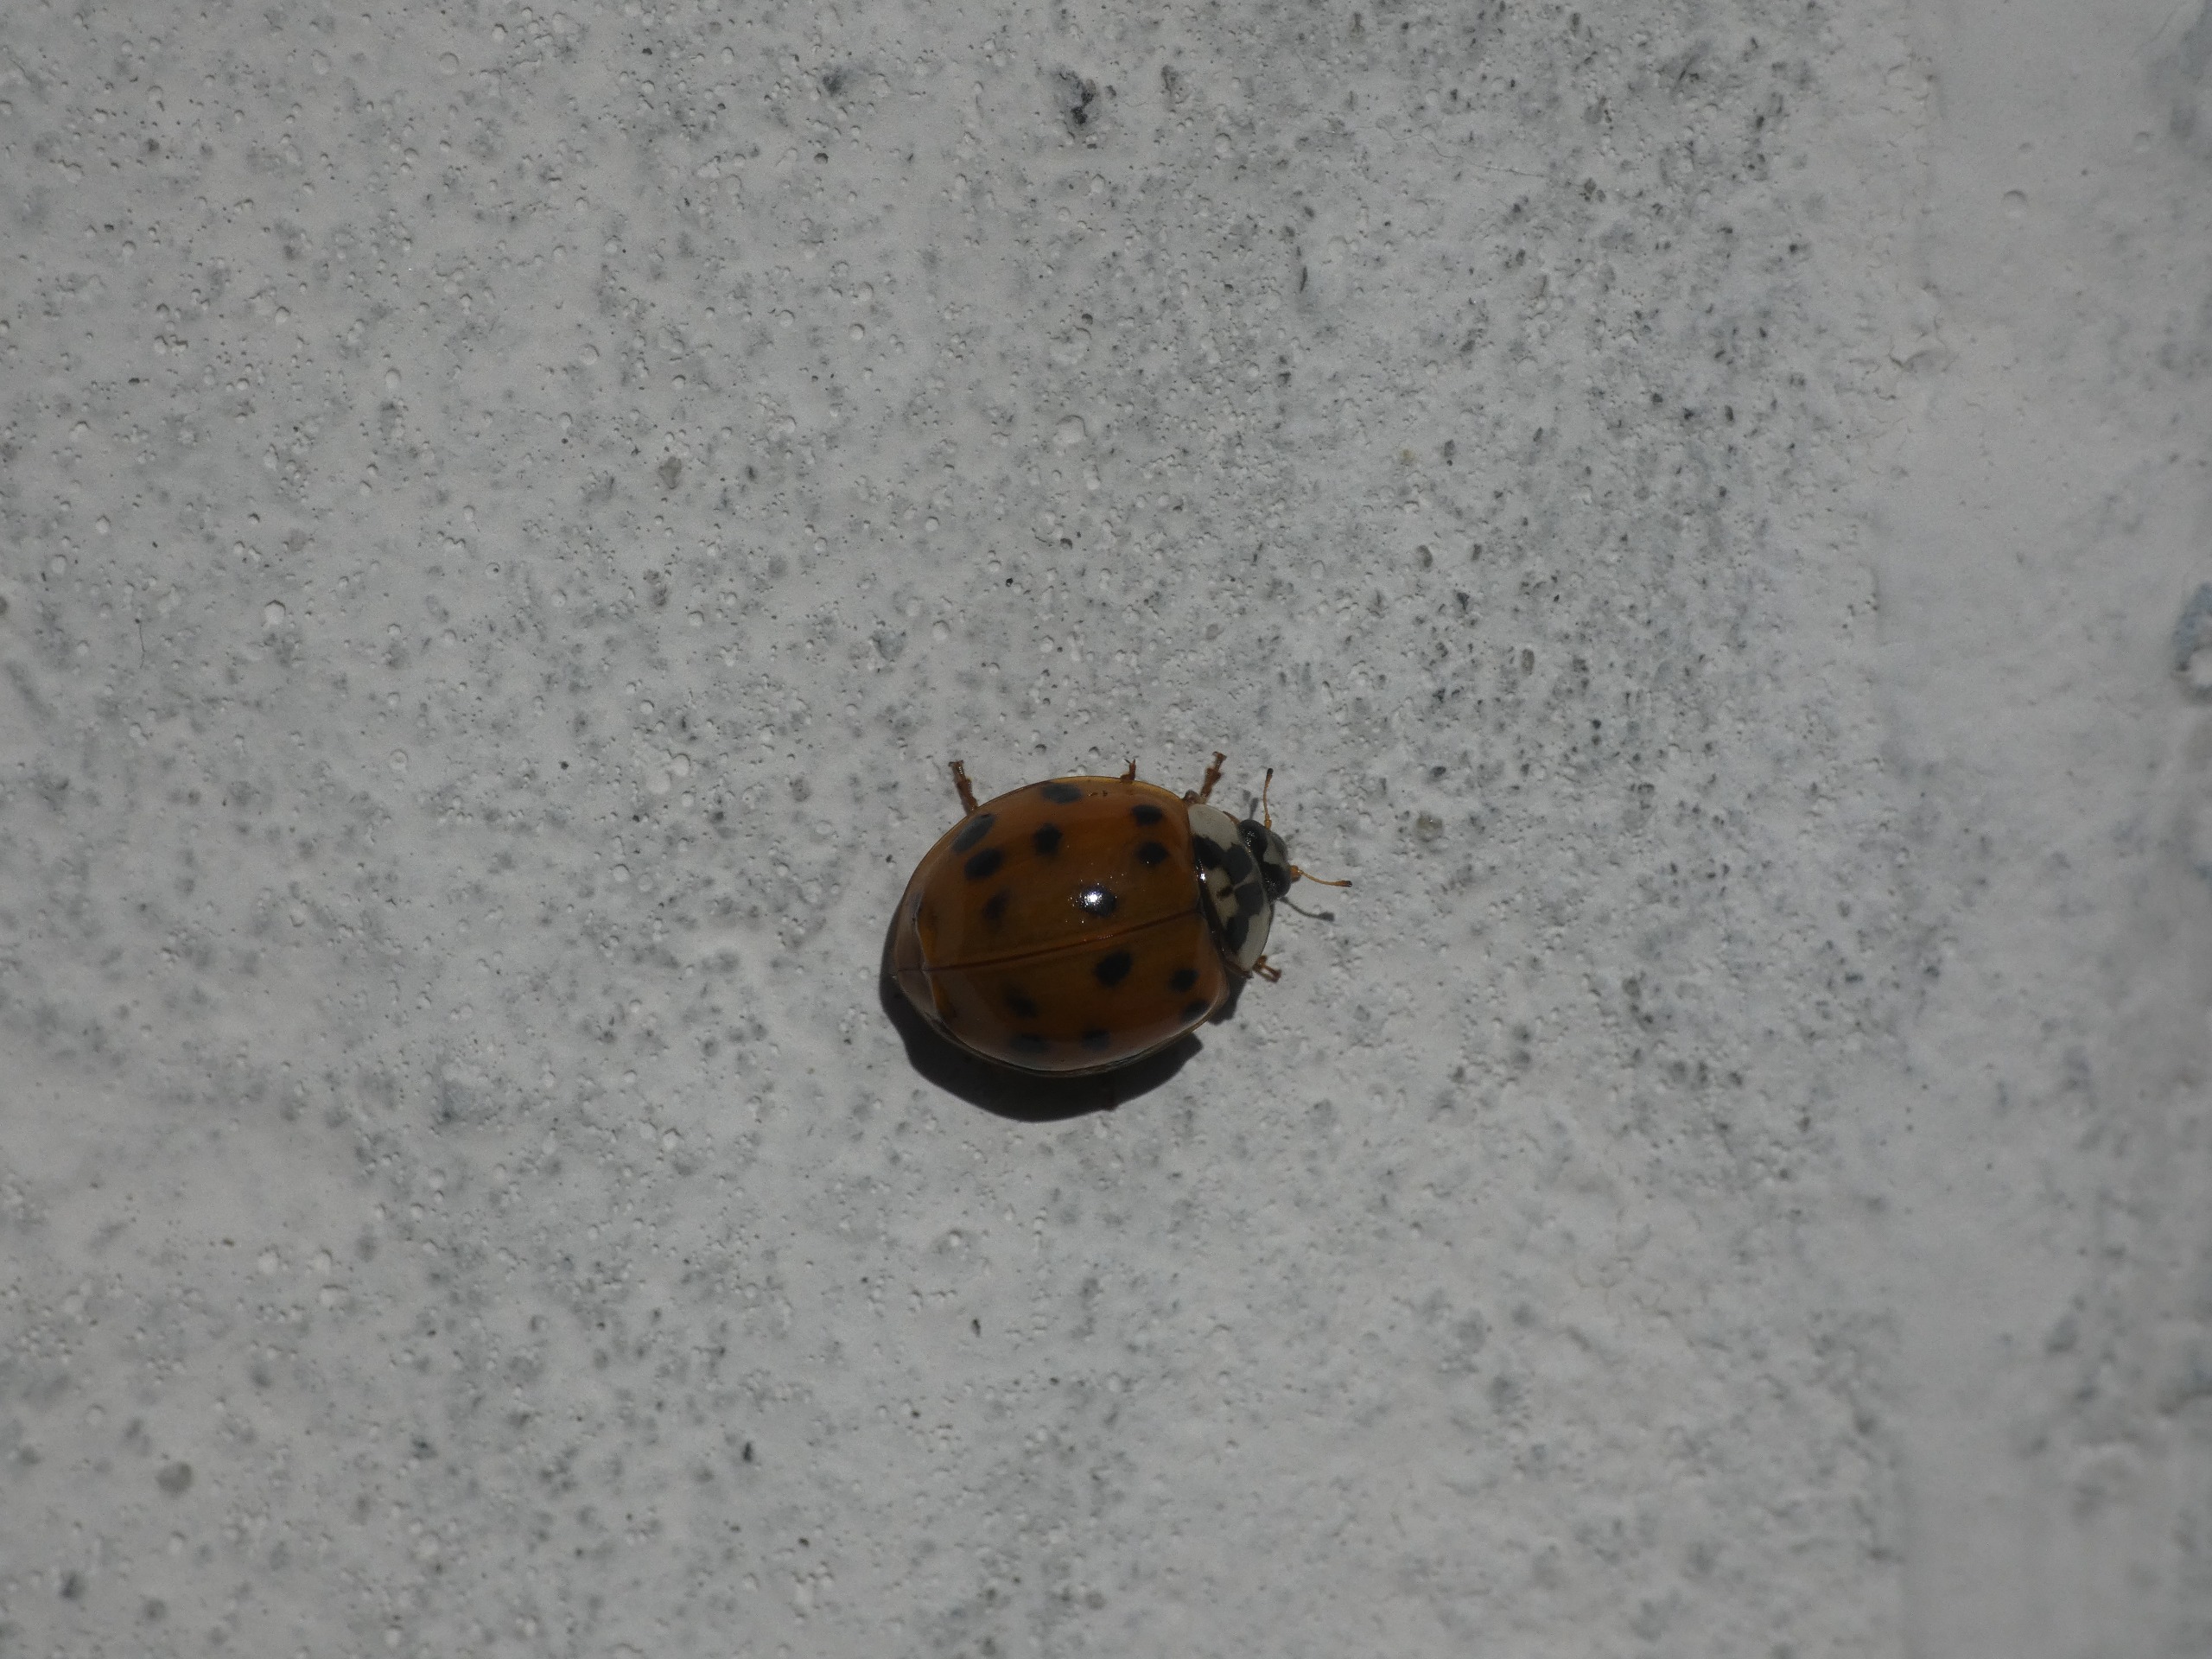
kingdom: Animalia
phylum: Arthropoda
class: Insecta
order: Coleoptera
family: Coccinellidae
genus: Harmonia
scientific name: Harmonia axyridis
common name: Harlekinmariehøne
